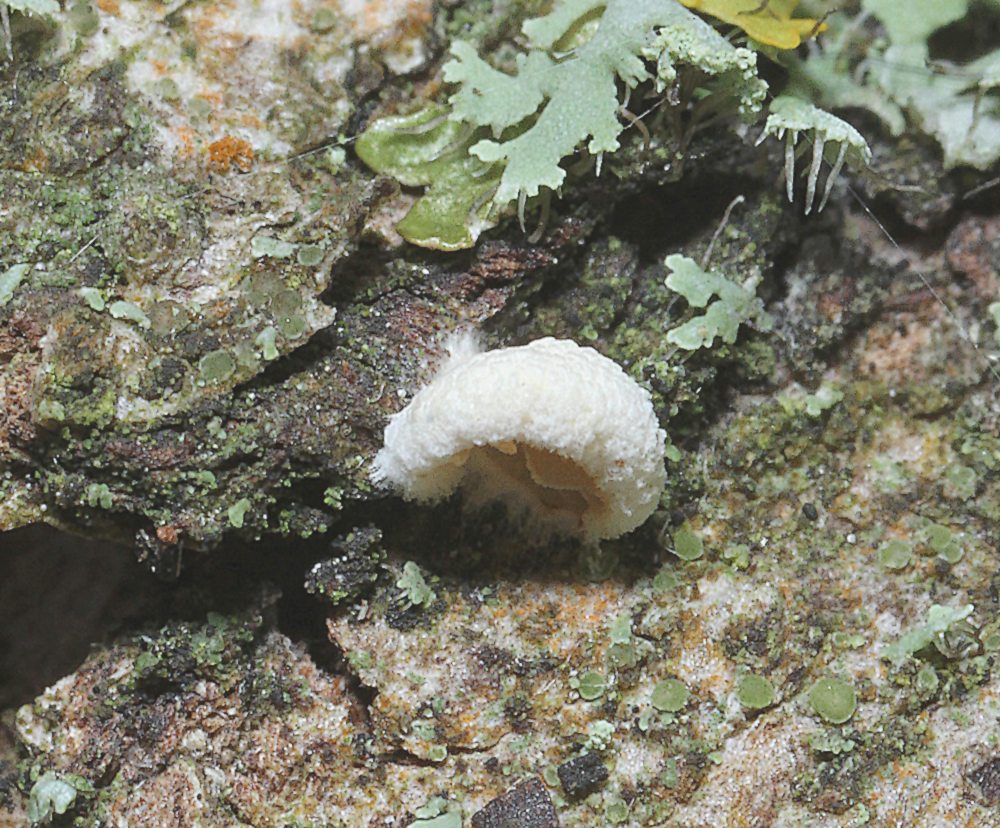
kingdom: Fungi
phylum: Basidiomycota
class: Agaricomycetes
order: Agaricales
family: Crepidotaceae
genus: Crepidotus
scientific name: Crepidotus
